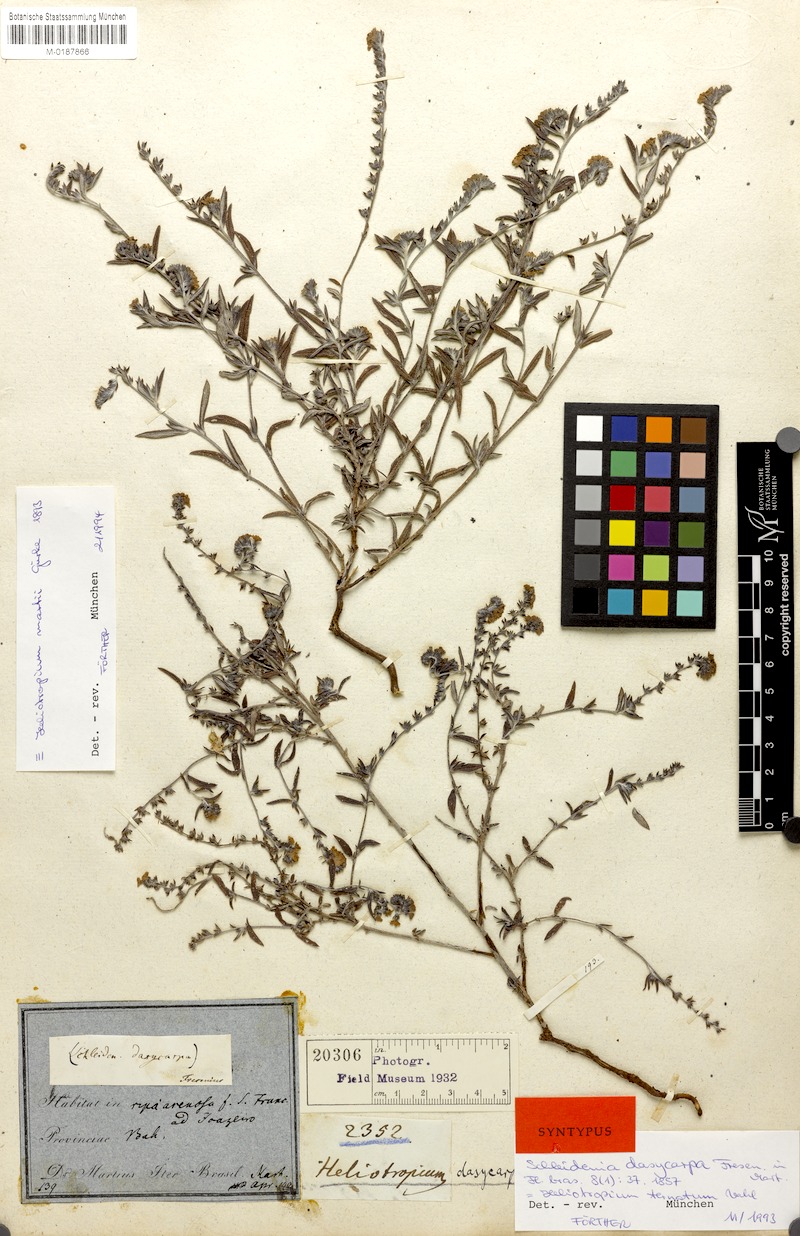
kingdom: Plantae
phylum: Tracheophyta
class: Magnoliopsida
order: Boraginales
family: Heliotropiaceae
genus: Euploca
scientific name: Euploca humilis
